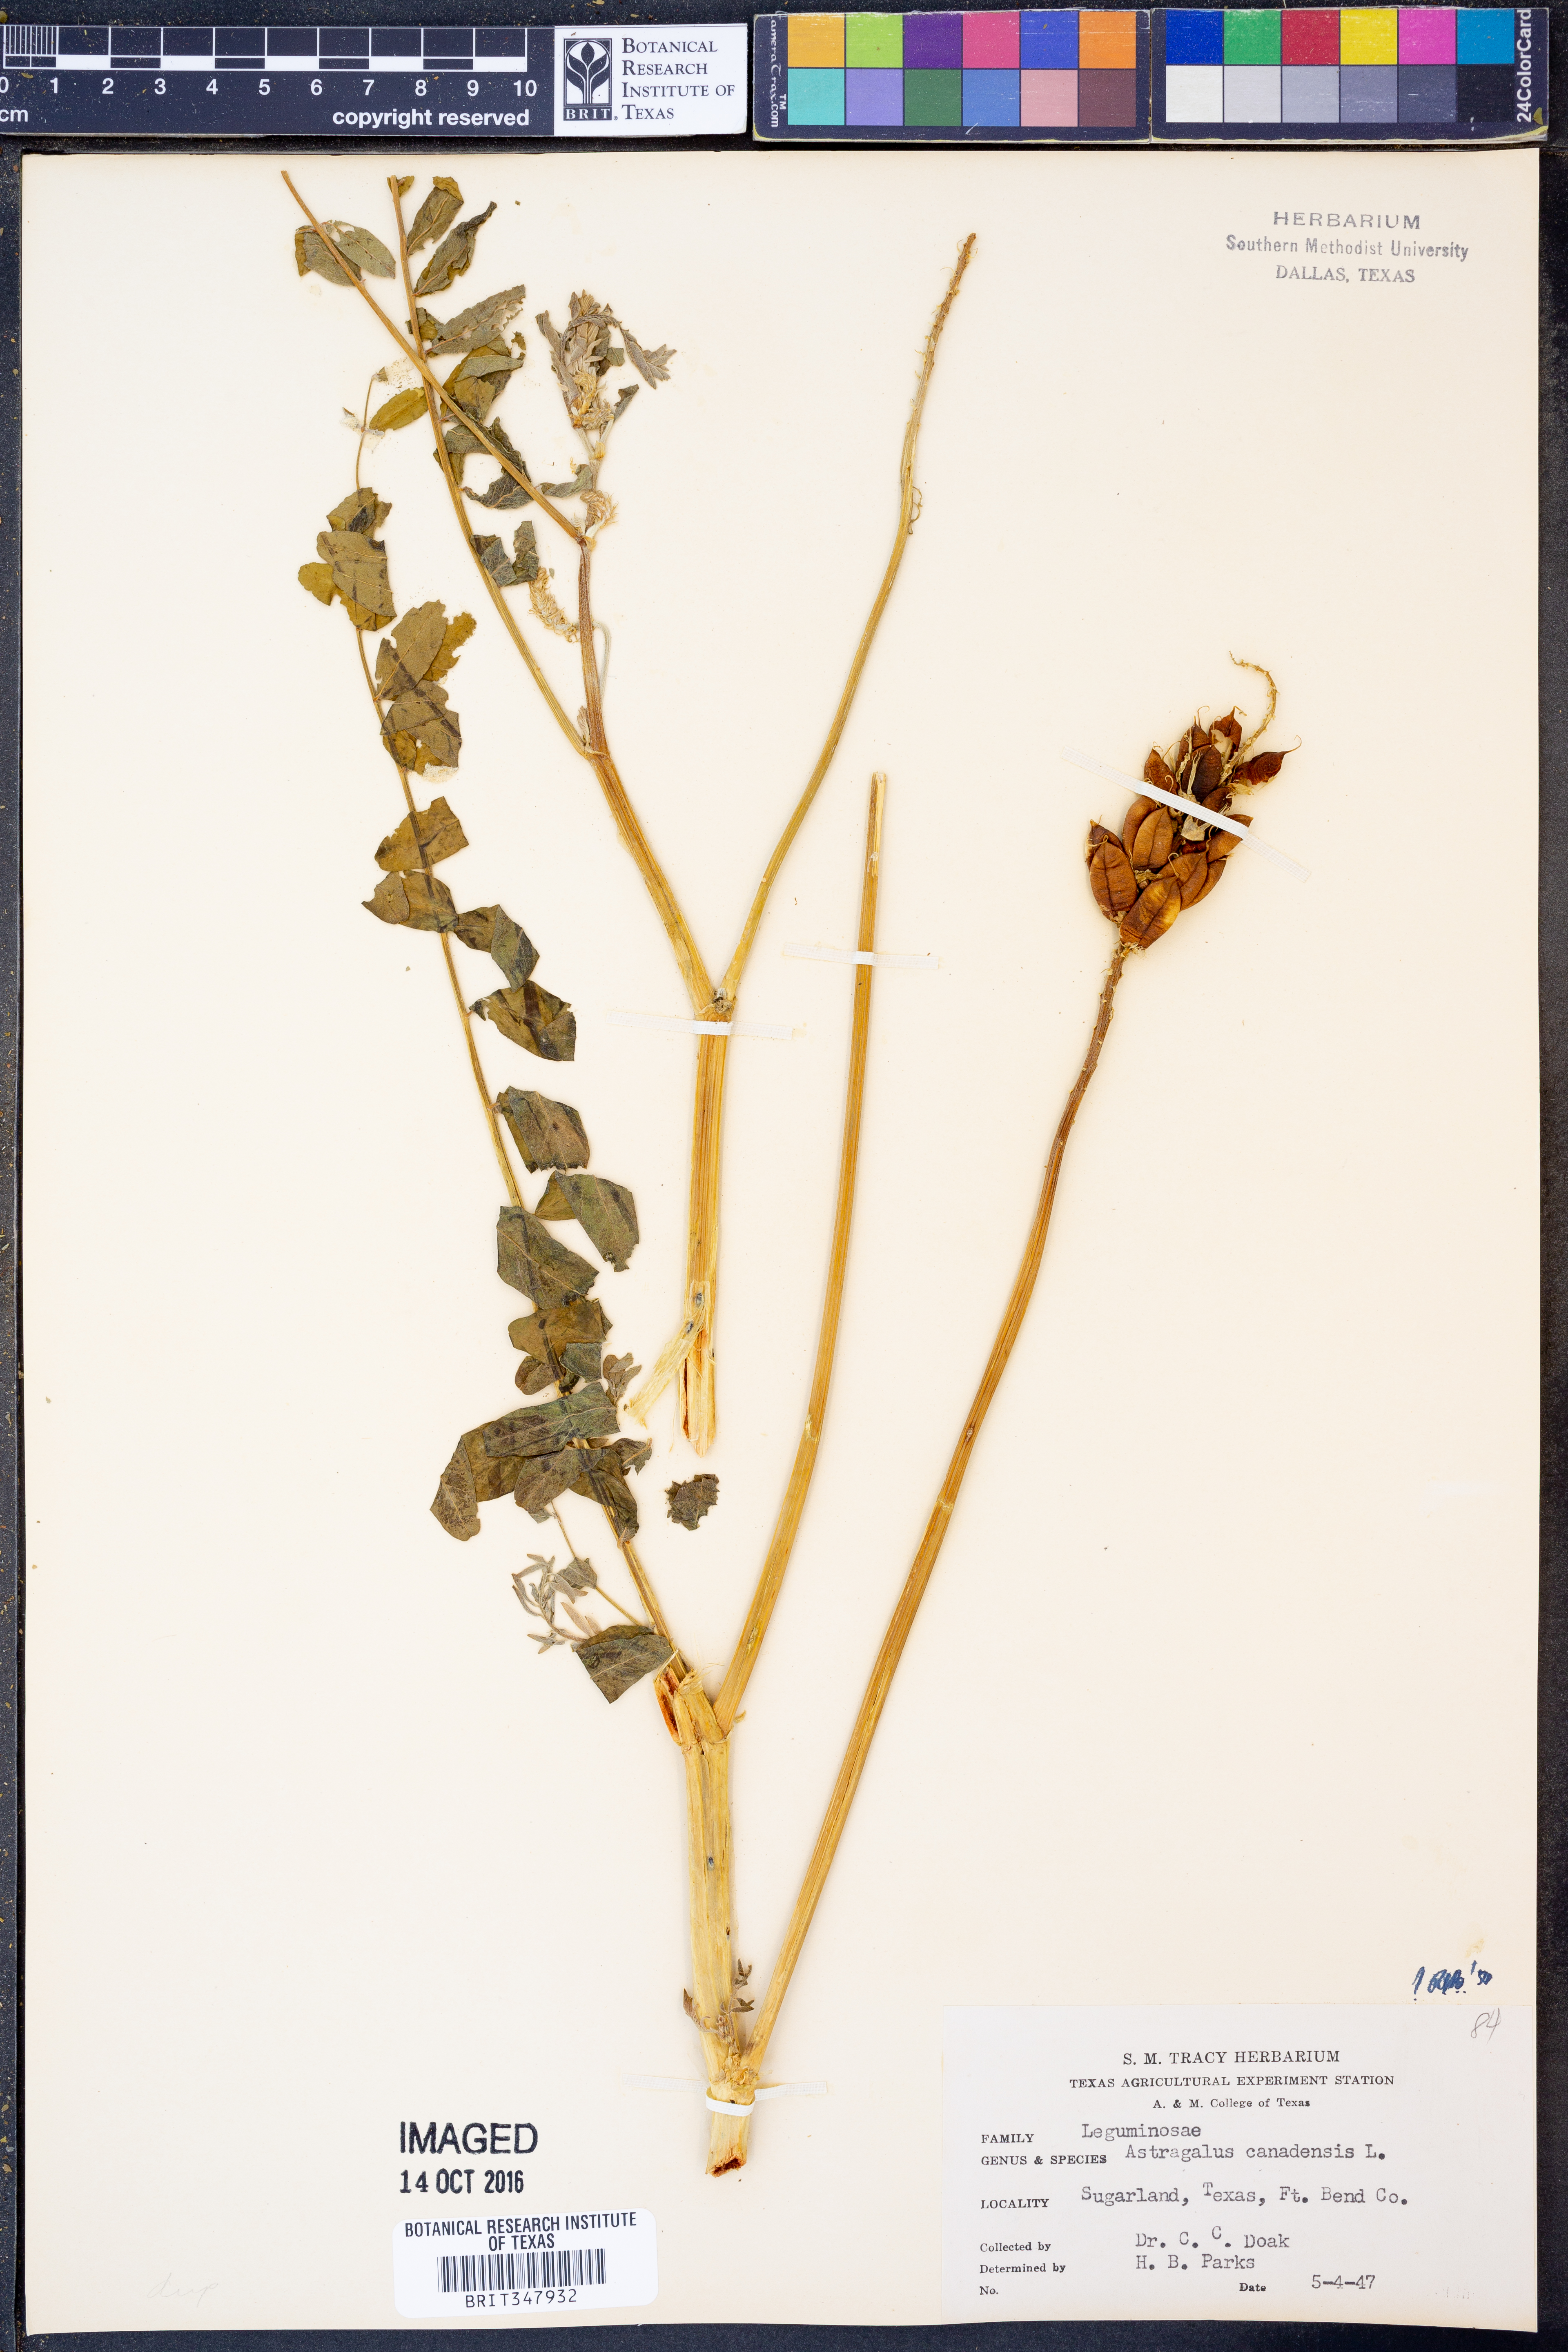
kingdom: Plantae
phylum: Tracheophyta
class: Magnoliopsida
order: Fabales
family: Fabaceae
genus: Astragalus
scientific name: Astragalus canadensis
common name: Canada milk-vetch
